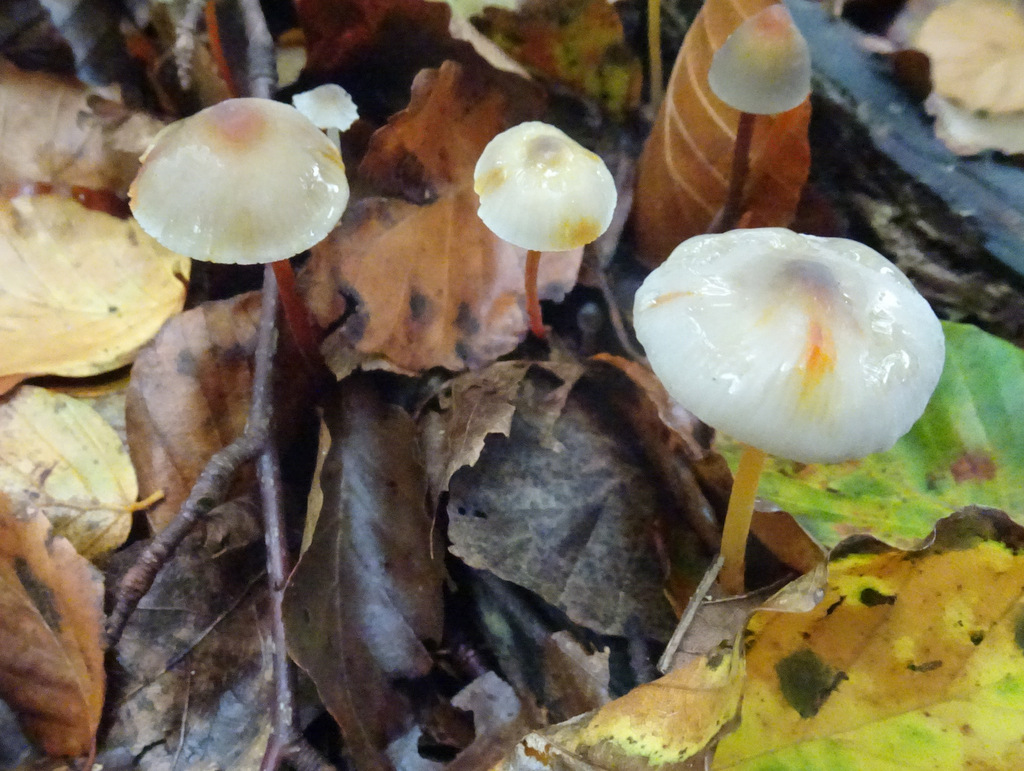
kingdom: Fungi
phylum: Basidiomycota
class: Agaricomycetes
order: Agaricales
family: Mycenaceae
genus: Mycena
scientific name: Mycena crocata
